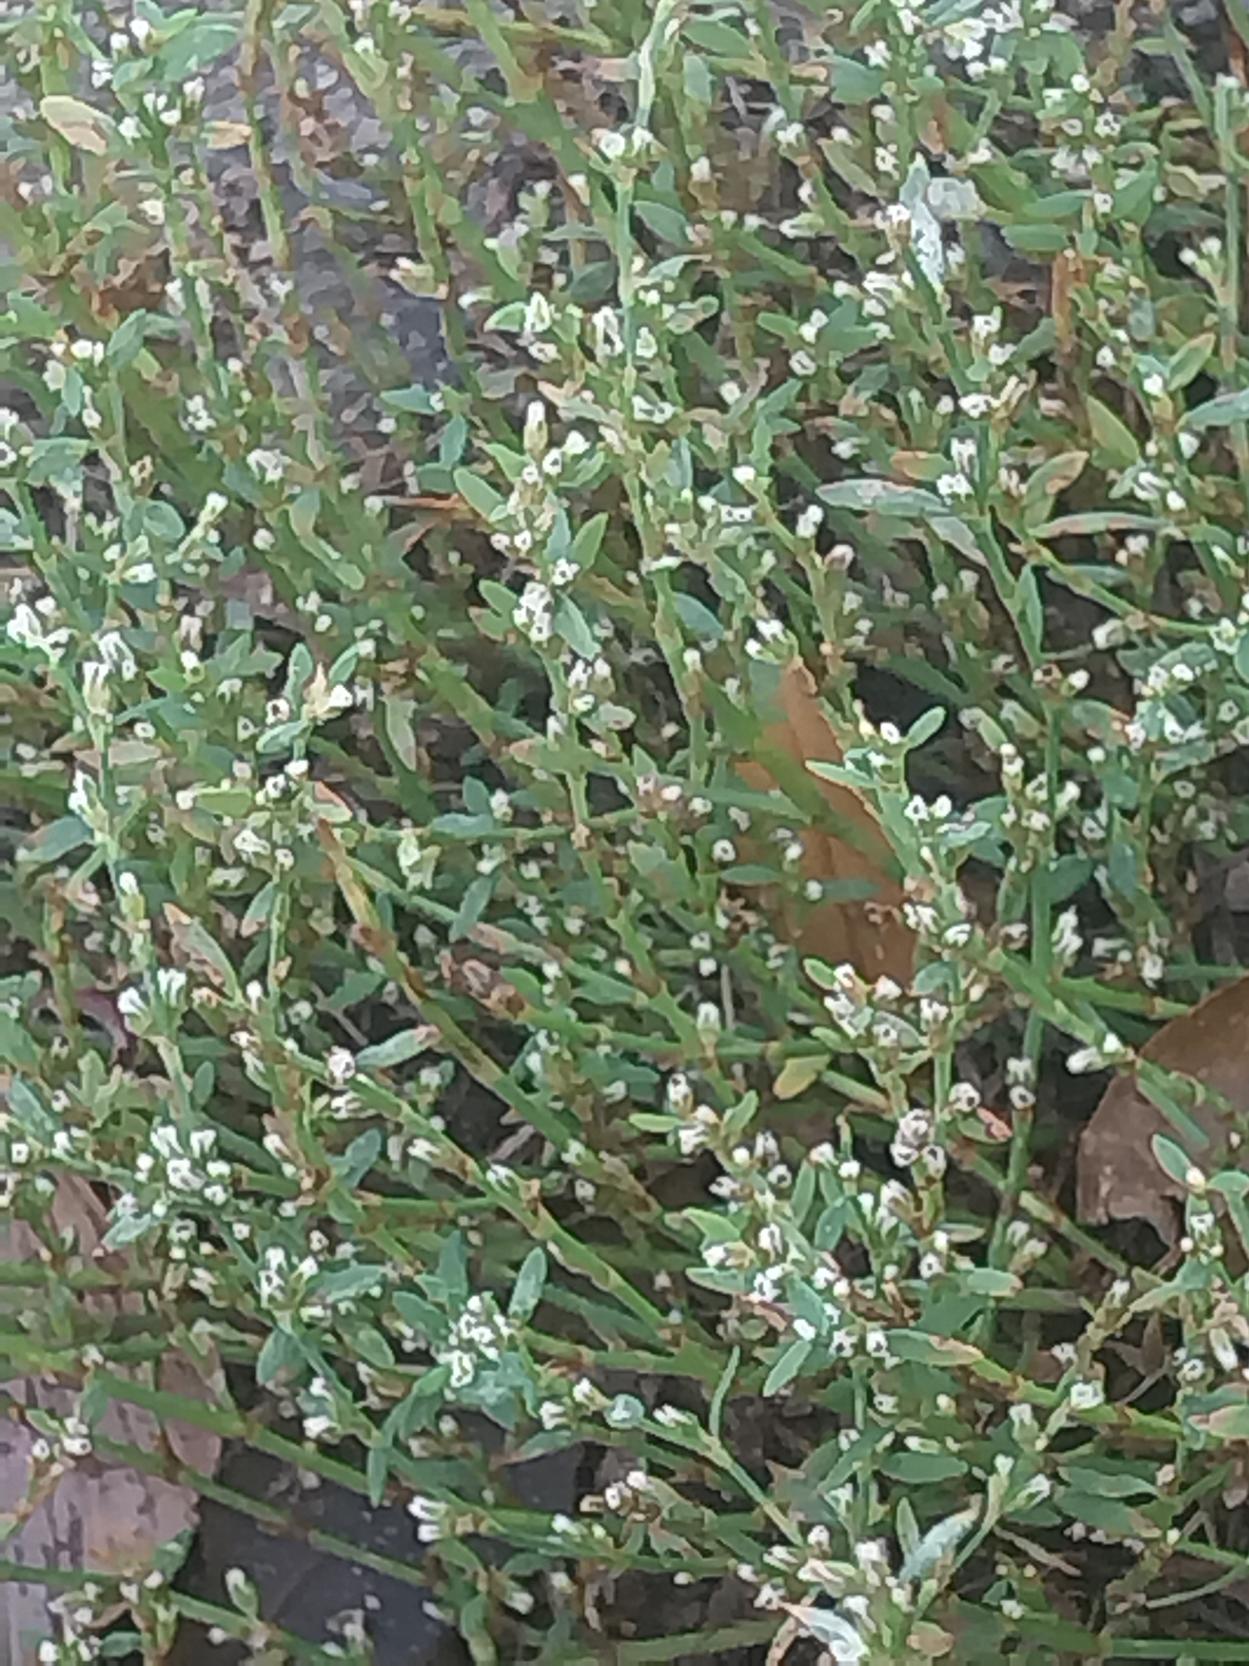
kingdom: Plantae
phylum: Tracheophyta
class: Magnoliopsida
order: Caryophyllales
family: Polygonaceae
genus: Polygonum
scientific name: Polygonum arenastrum
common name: Liggende vej-pileurt
